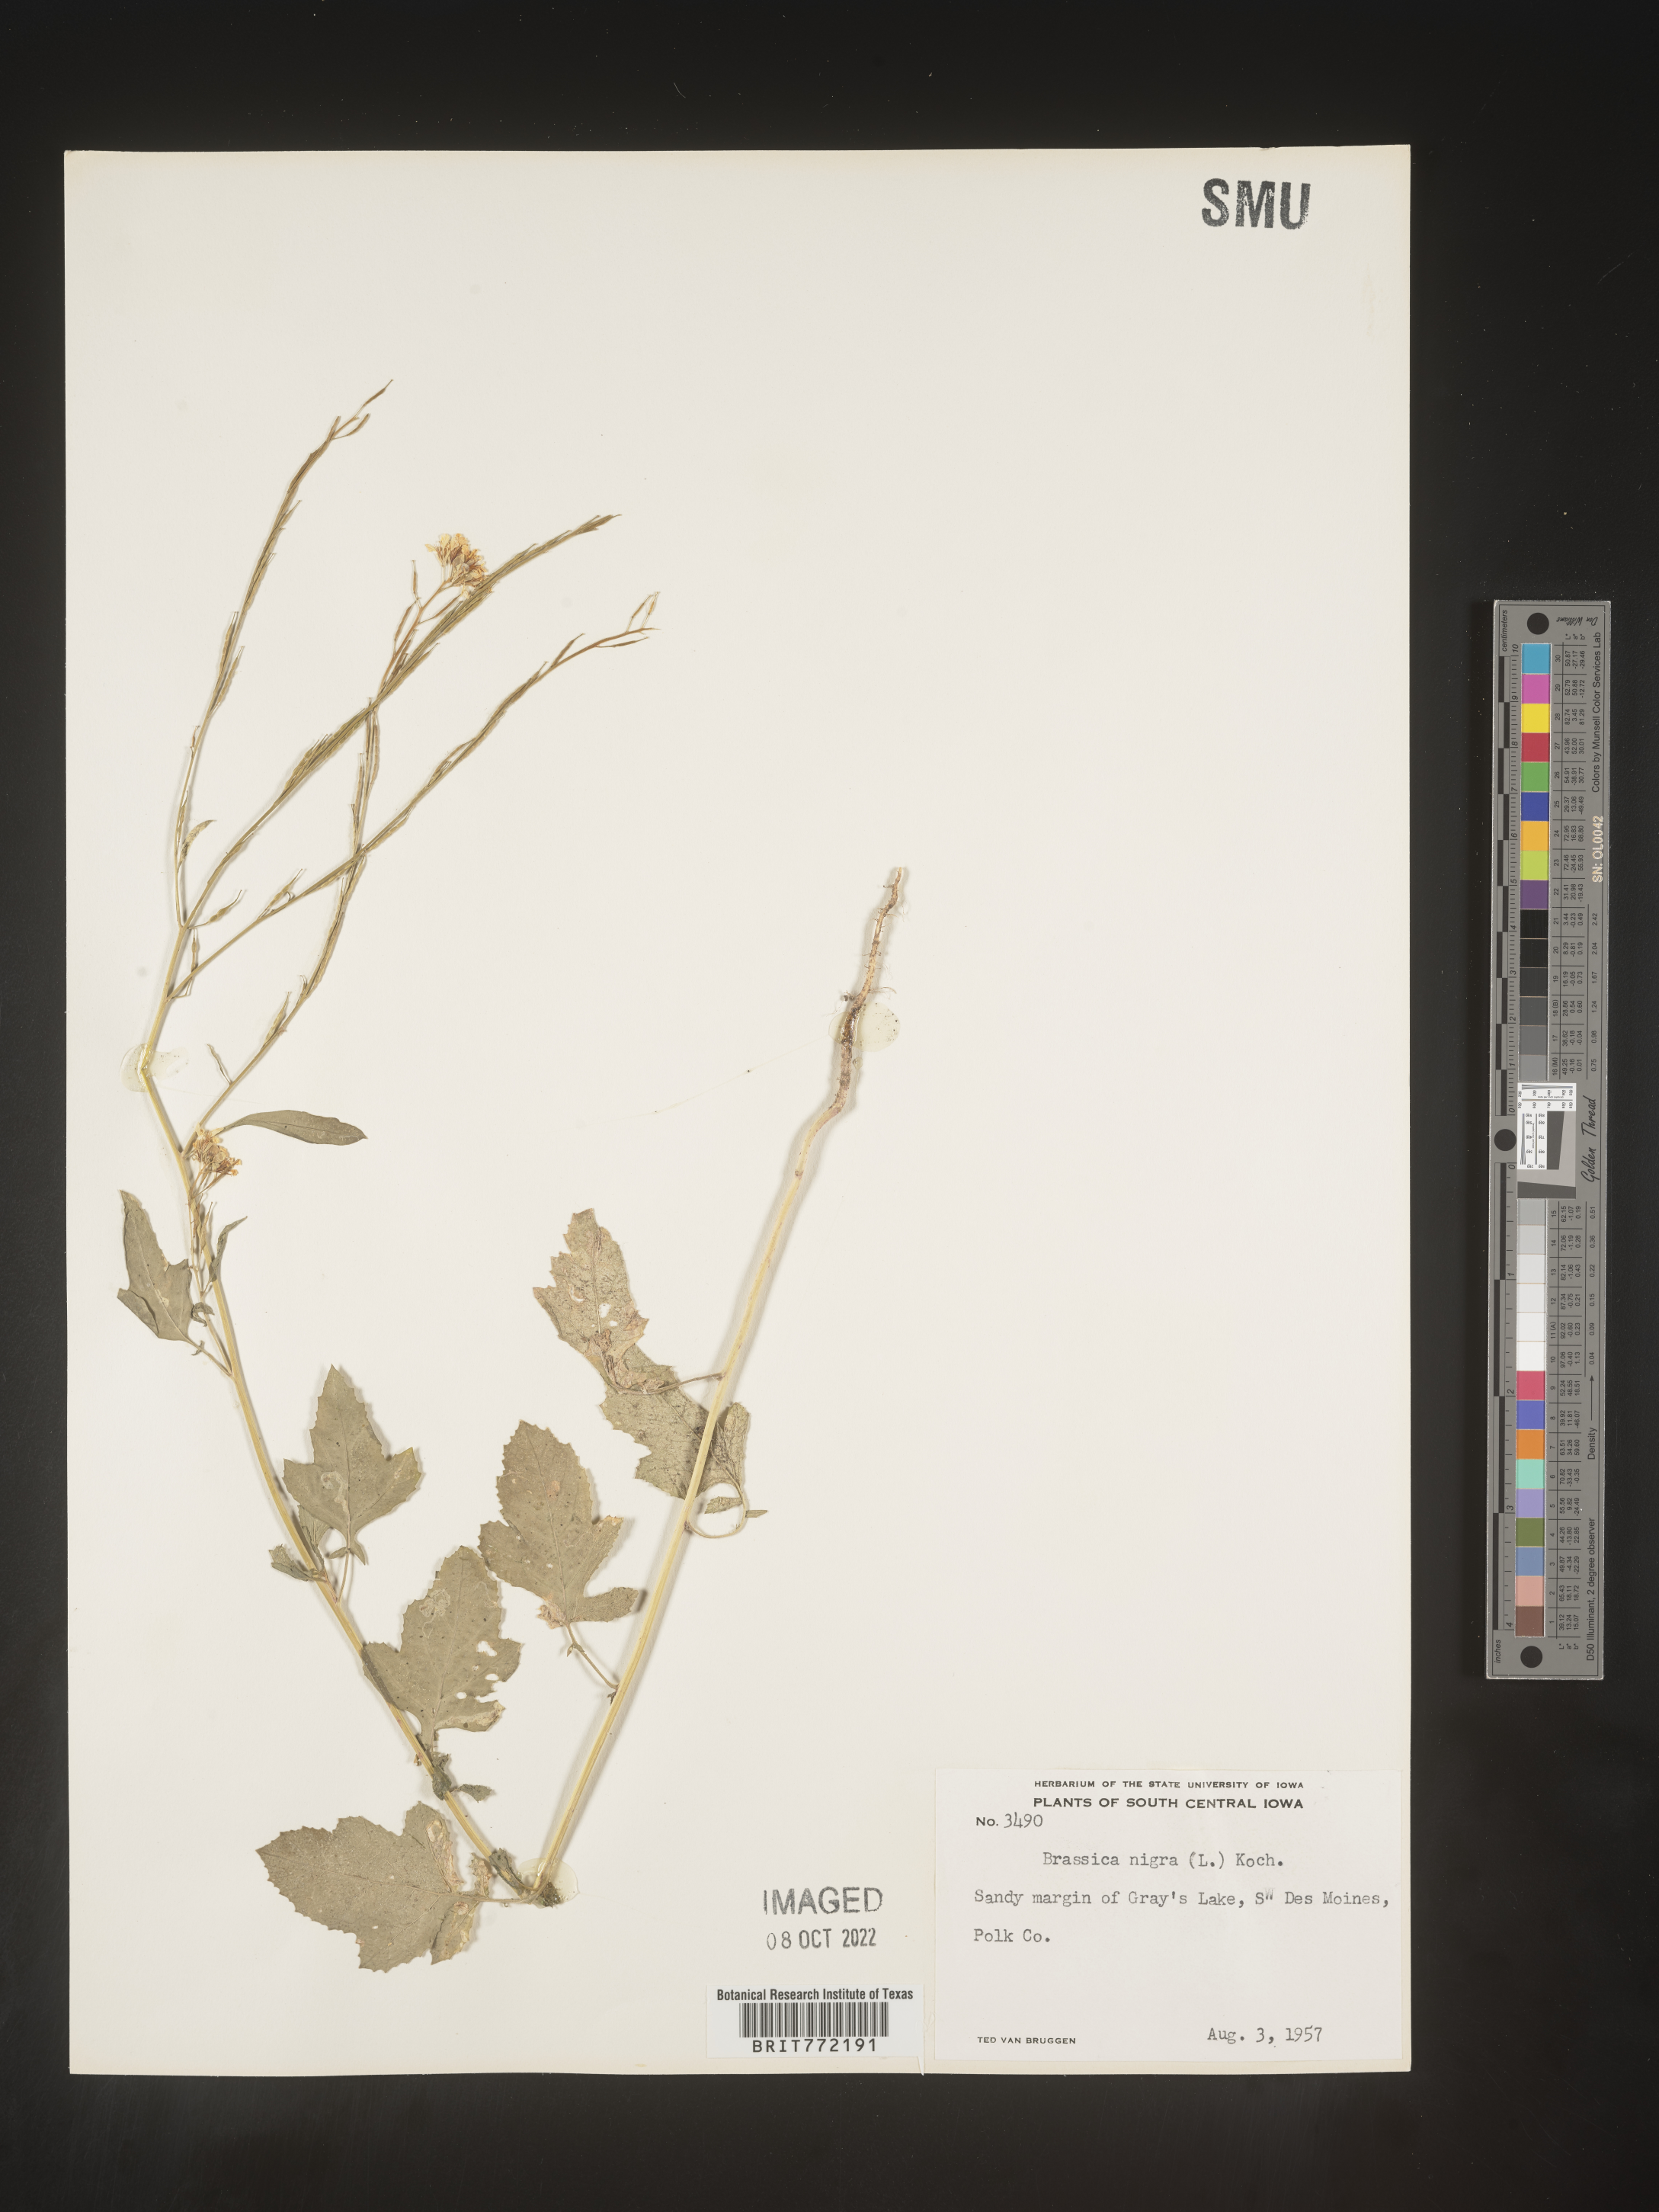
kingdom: Plantae
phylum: Tracheophyta
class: Magnoliopsida
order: Brassicales
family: Brassicaceae
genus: Brassica
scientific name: Brassica nigra
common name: Black mustard
